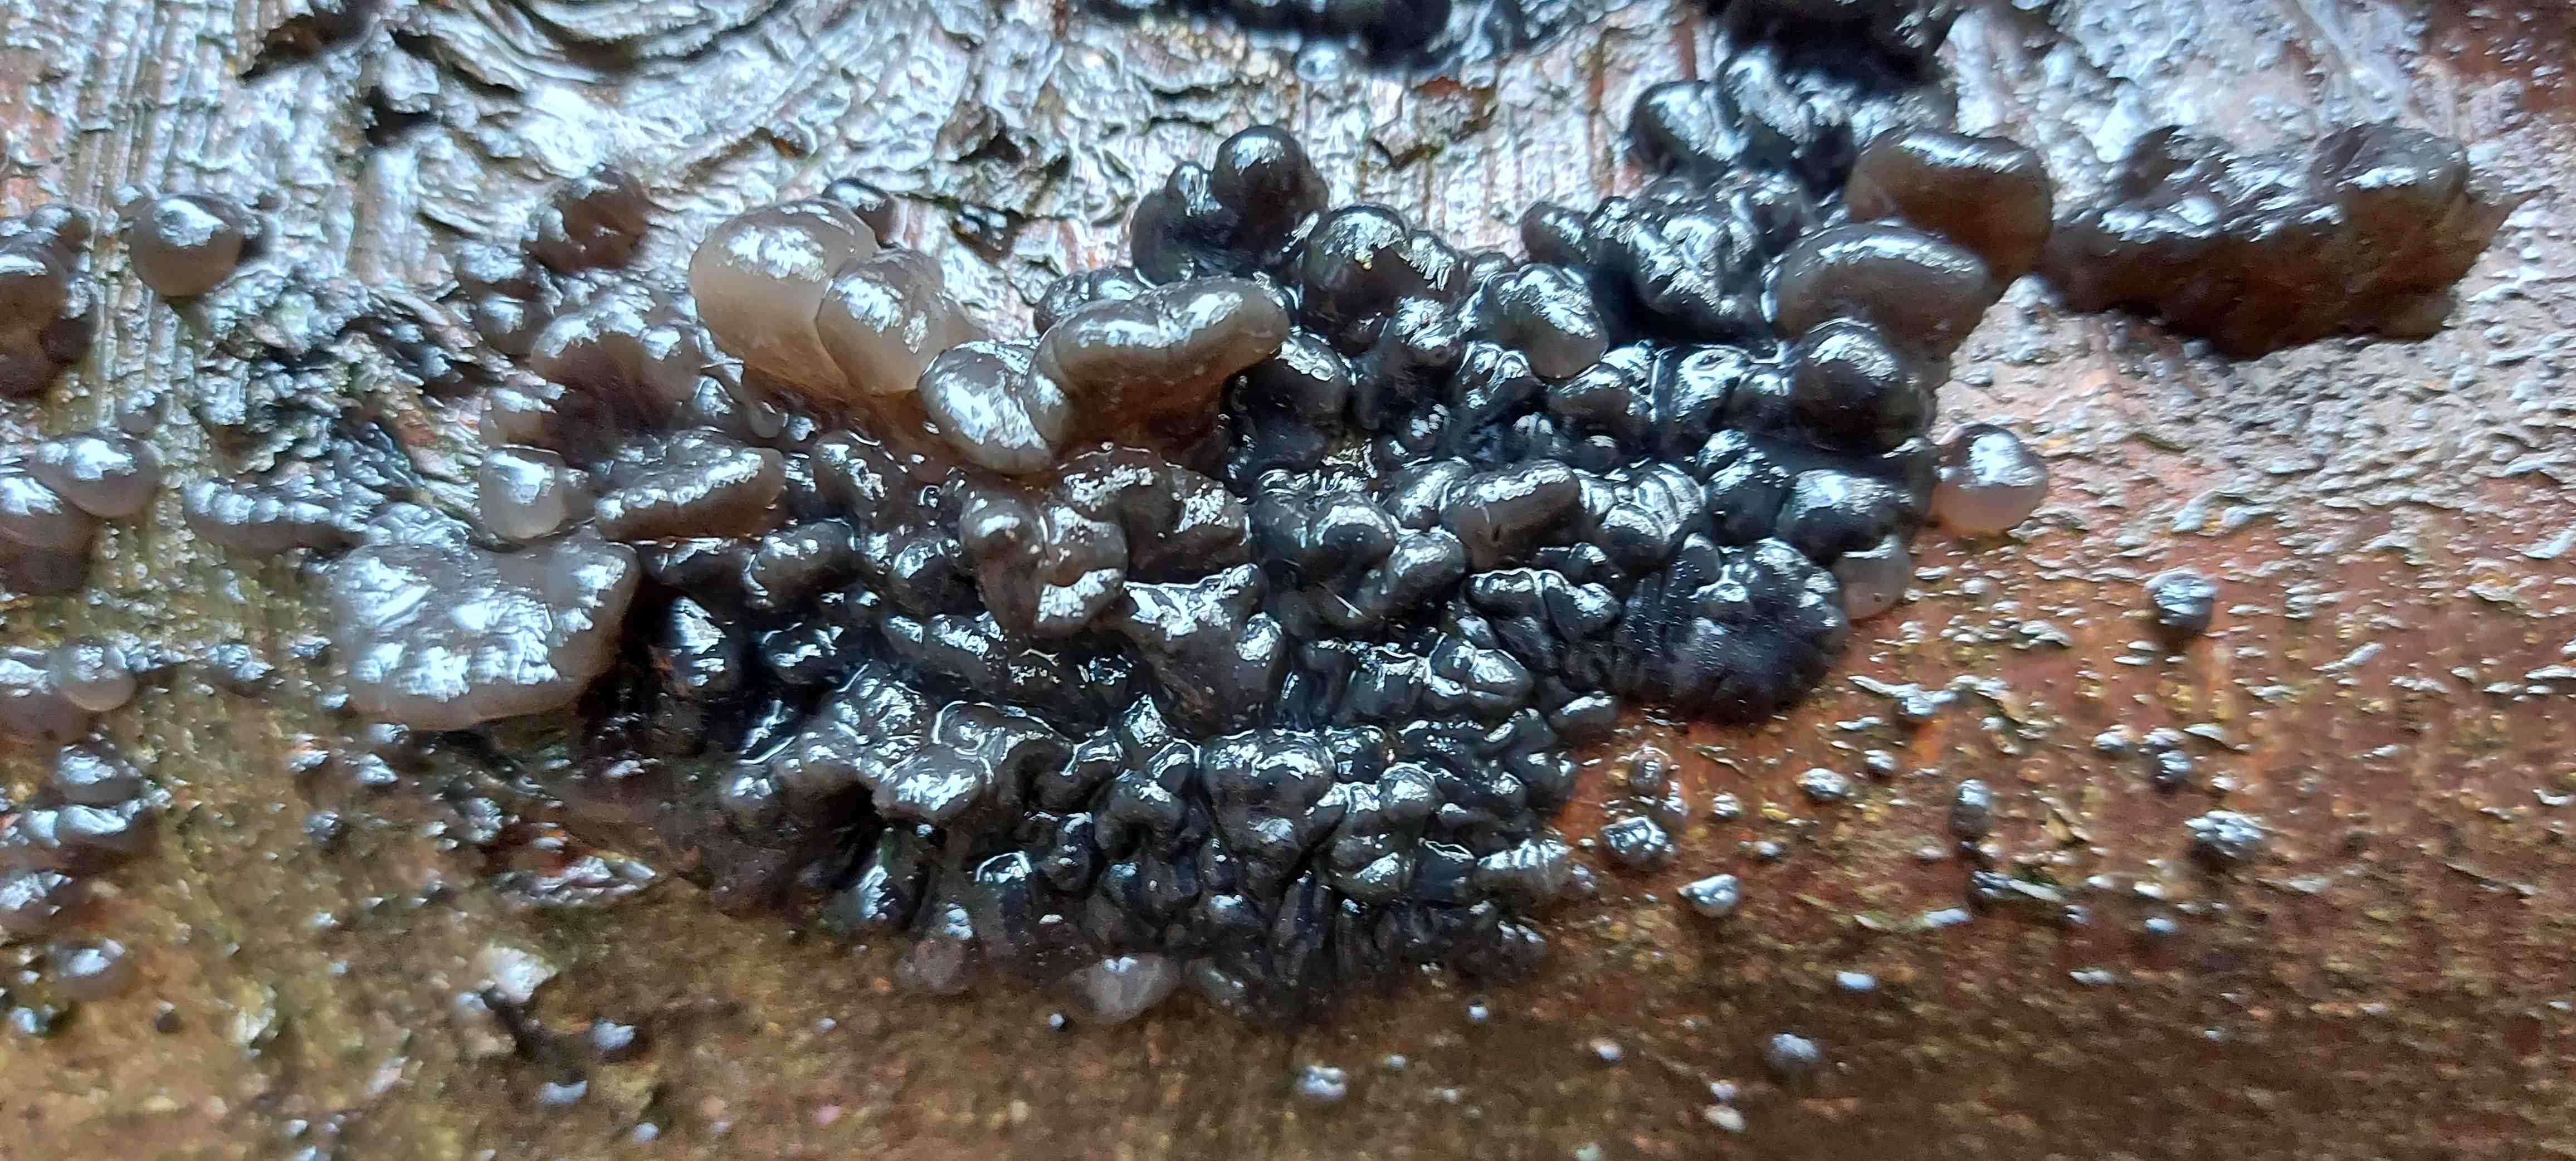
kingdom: Fungi
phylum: Basidiomycota
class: Agaricomycetes
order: Auriculariales
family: Auriculariaceae
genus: Exidia
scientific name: Exidia nigricans
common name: almindelig bævretop
